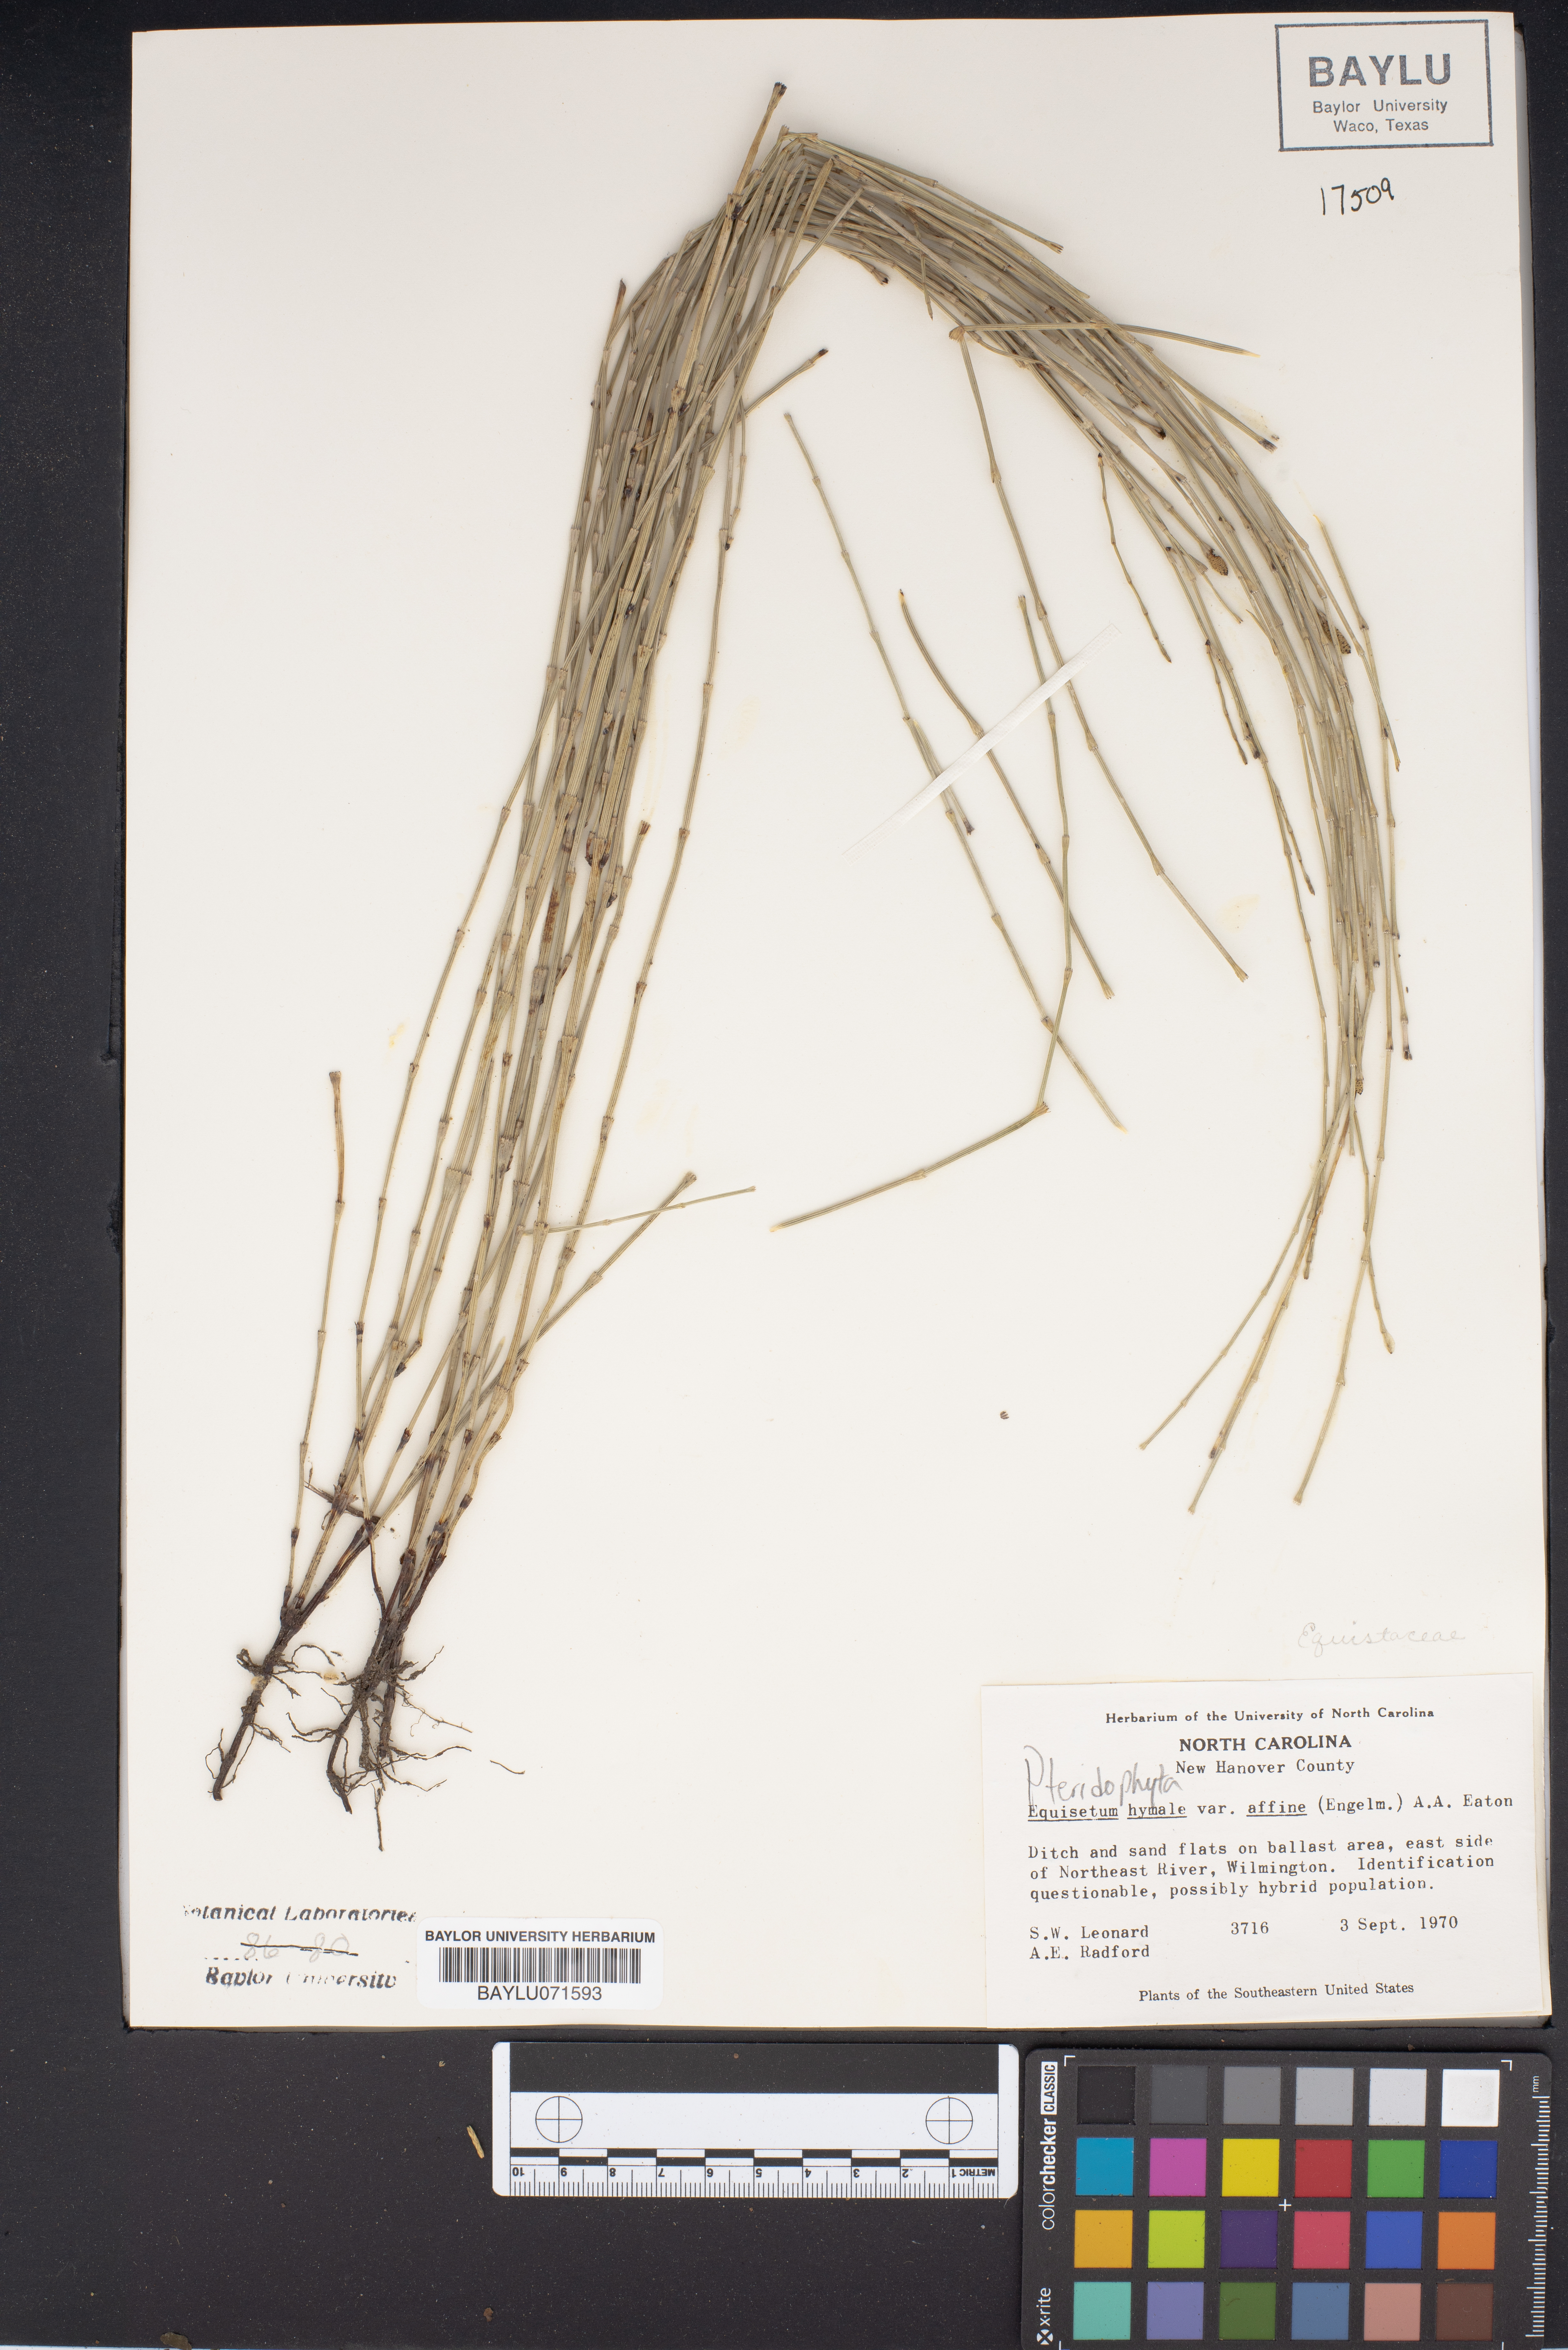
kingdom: Plantae
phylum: Tracheophyta
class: Polypodiopsida
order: Equisetales
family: Equisetaceae
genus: Equisetum
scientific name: Equisetum hyemale
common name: Rough horsetail
